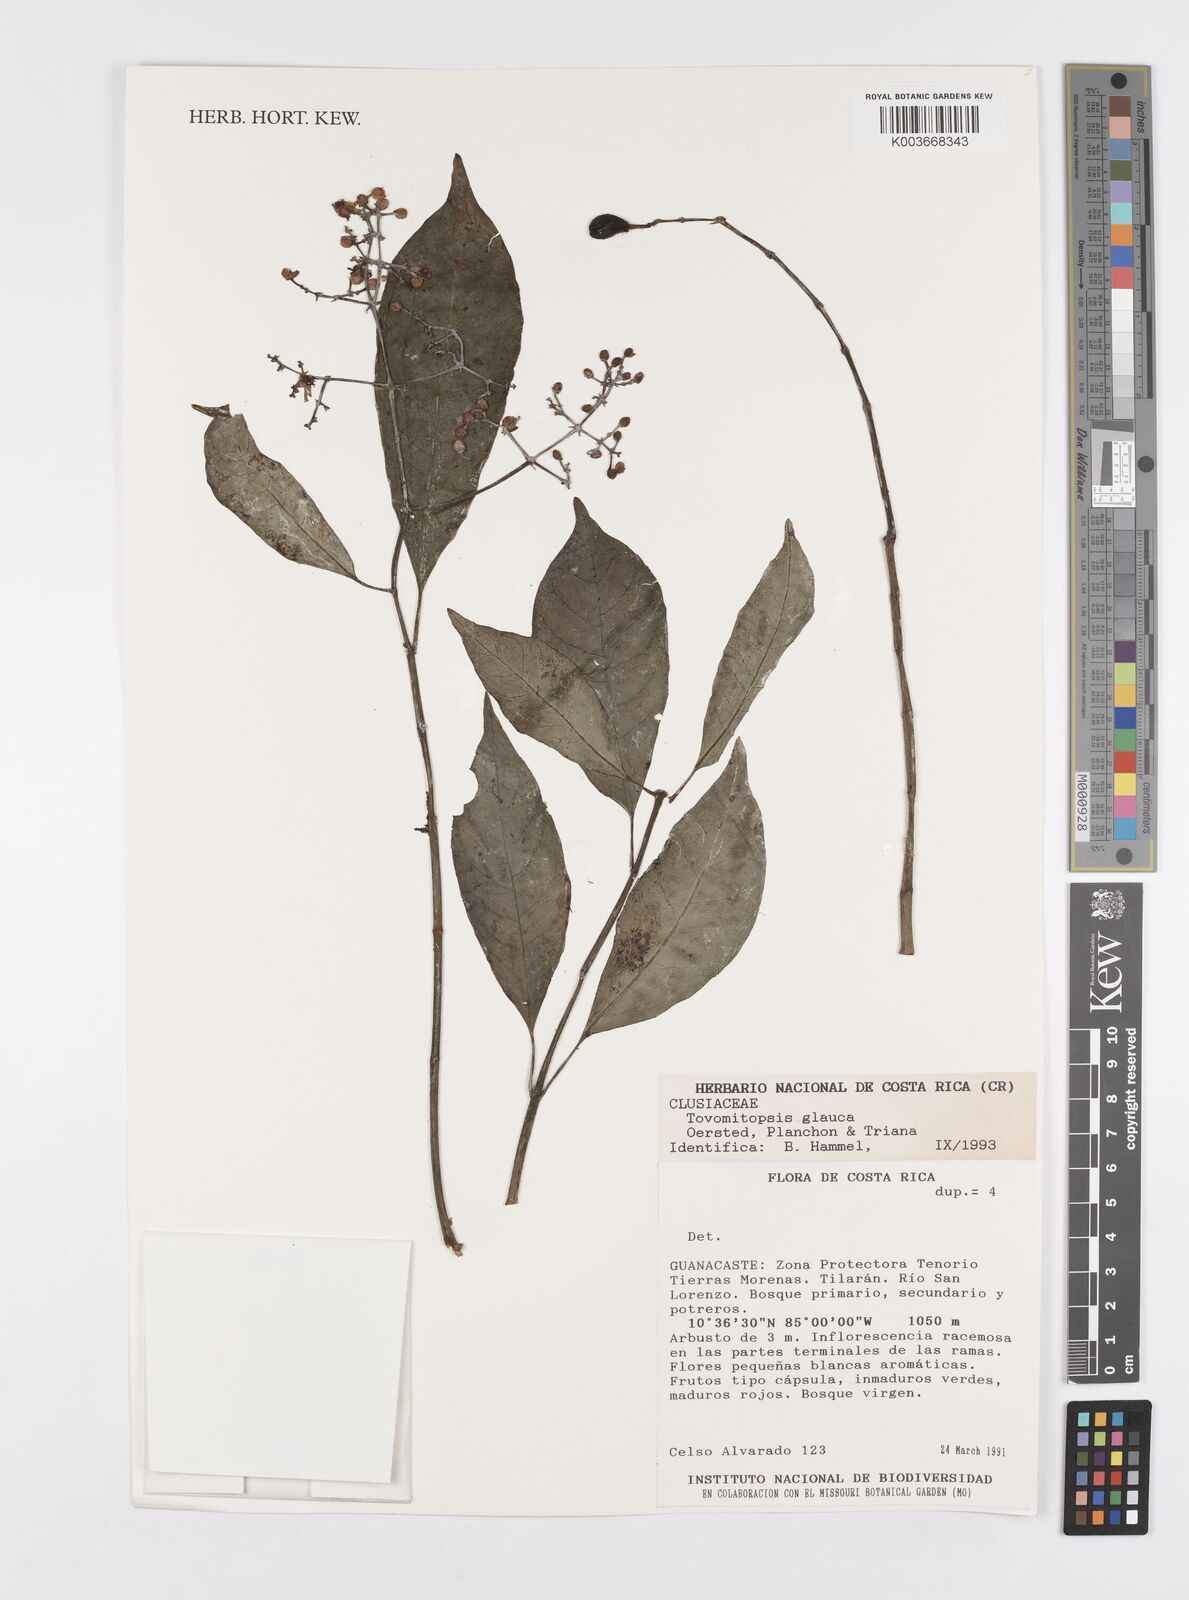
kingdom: Plantae
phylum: Tracheophyta
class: Magnoliopsida
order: Malpighiales
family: Clusiaceae
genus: Chrysochlamys
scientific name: Chrysochlamys glauca
